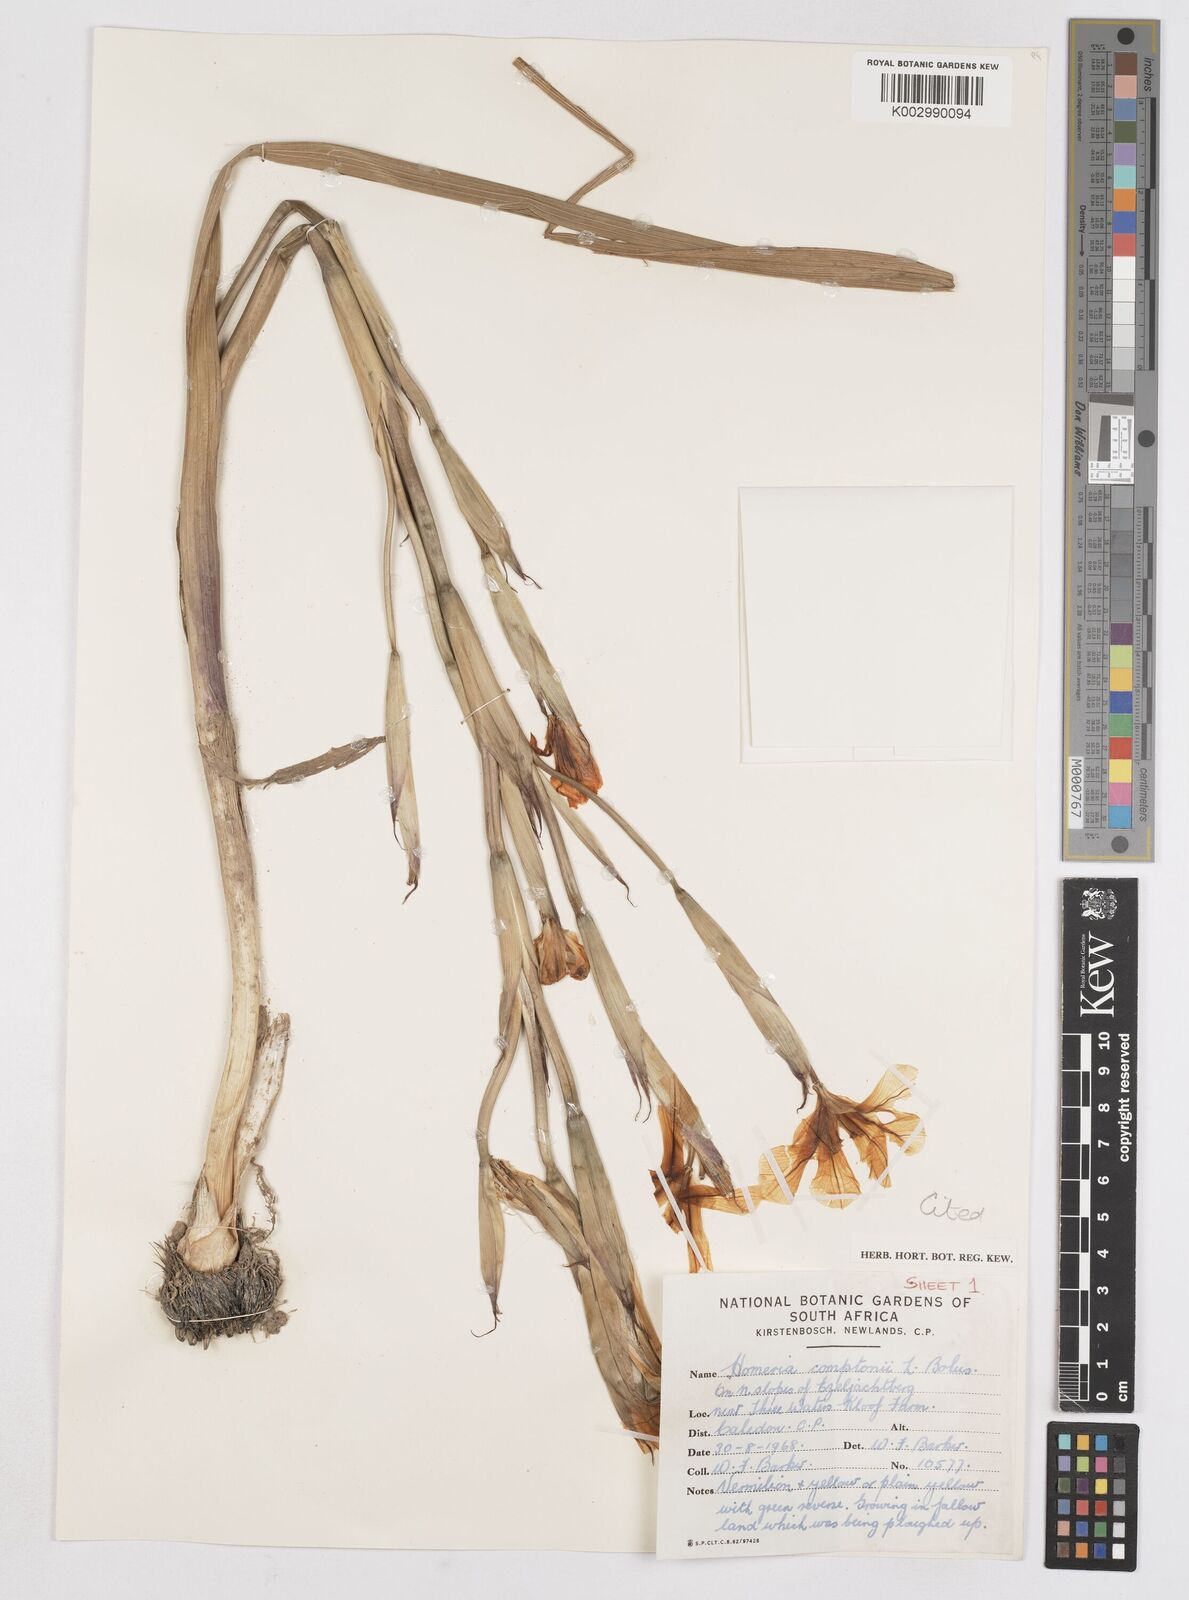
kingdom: Plantae
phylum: Tracheophyta
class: Liliopsida
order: Asparagales
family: Iridaceae
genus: Moraea
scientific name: Moraea comptonii
